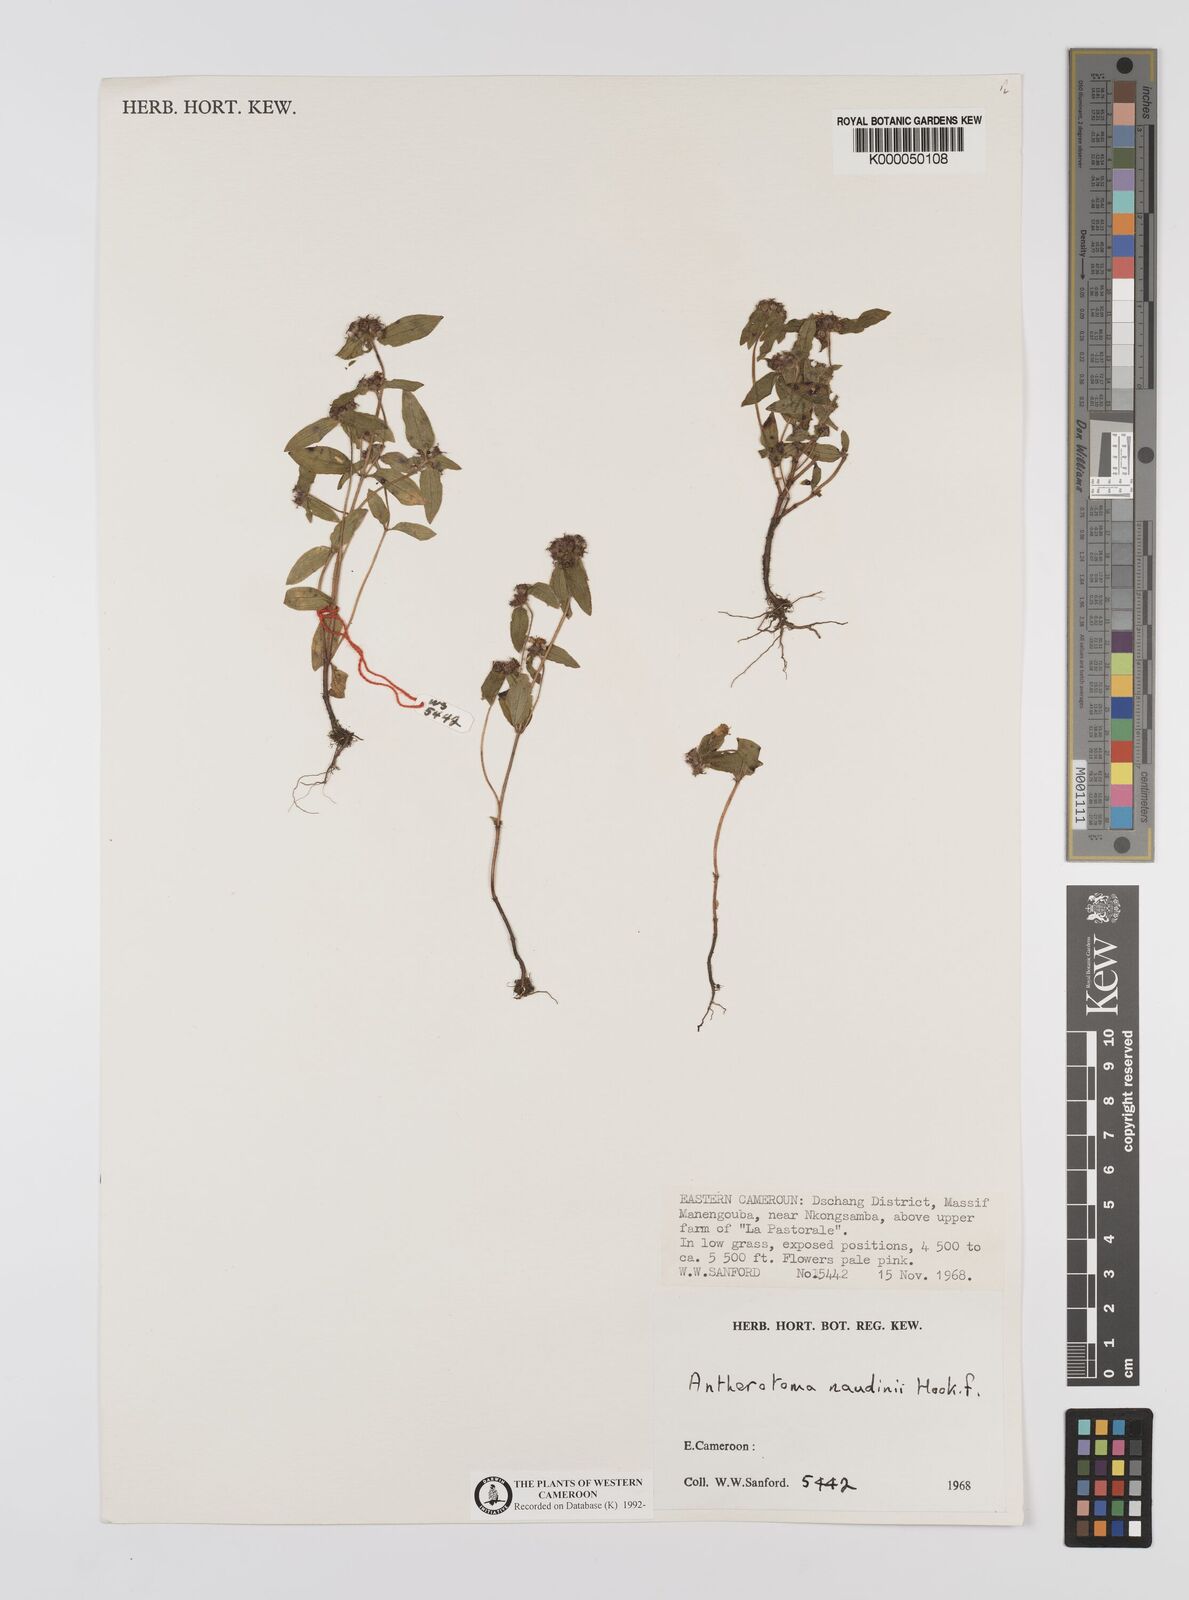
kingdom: Plantae
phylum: Tracheophyta
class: Magnoliopsida
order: Myrtales
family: Melastomataceae
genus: Antherotoma
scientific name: Antherotoma naudinii
